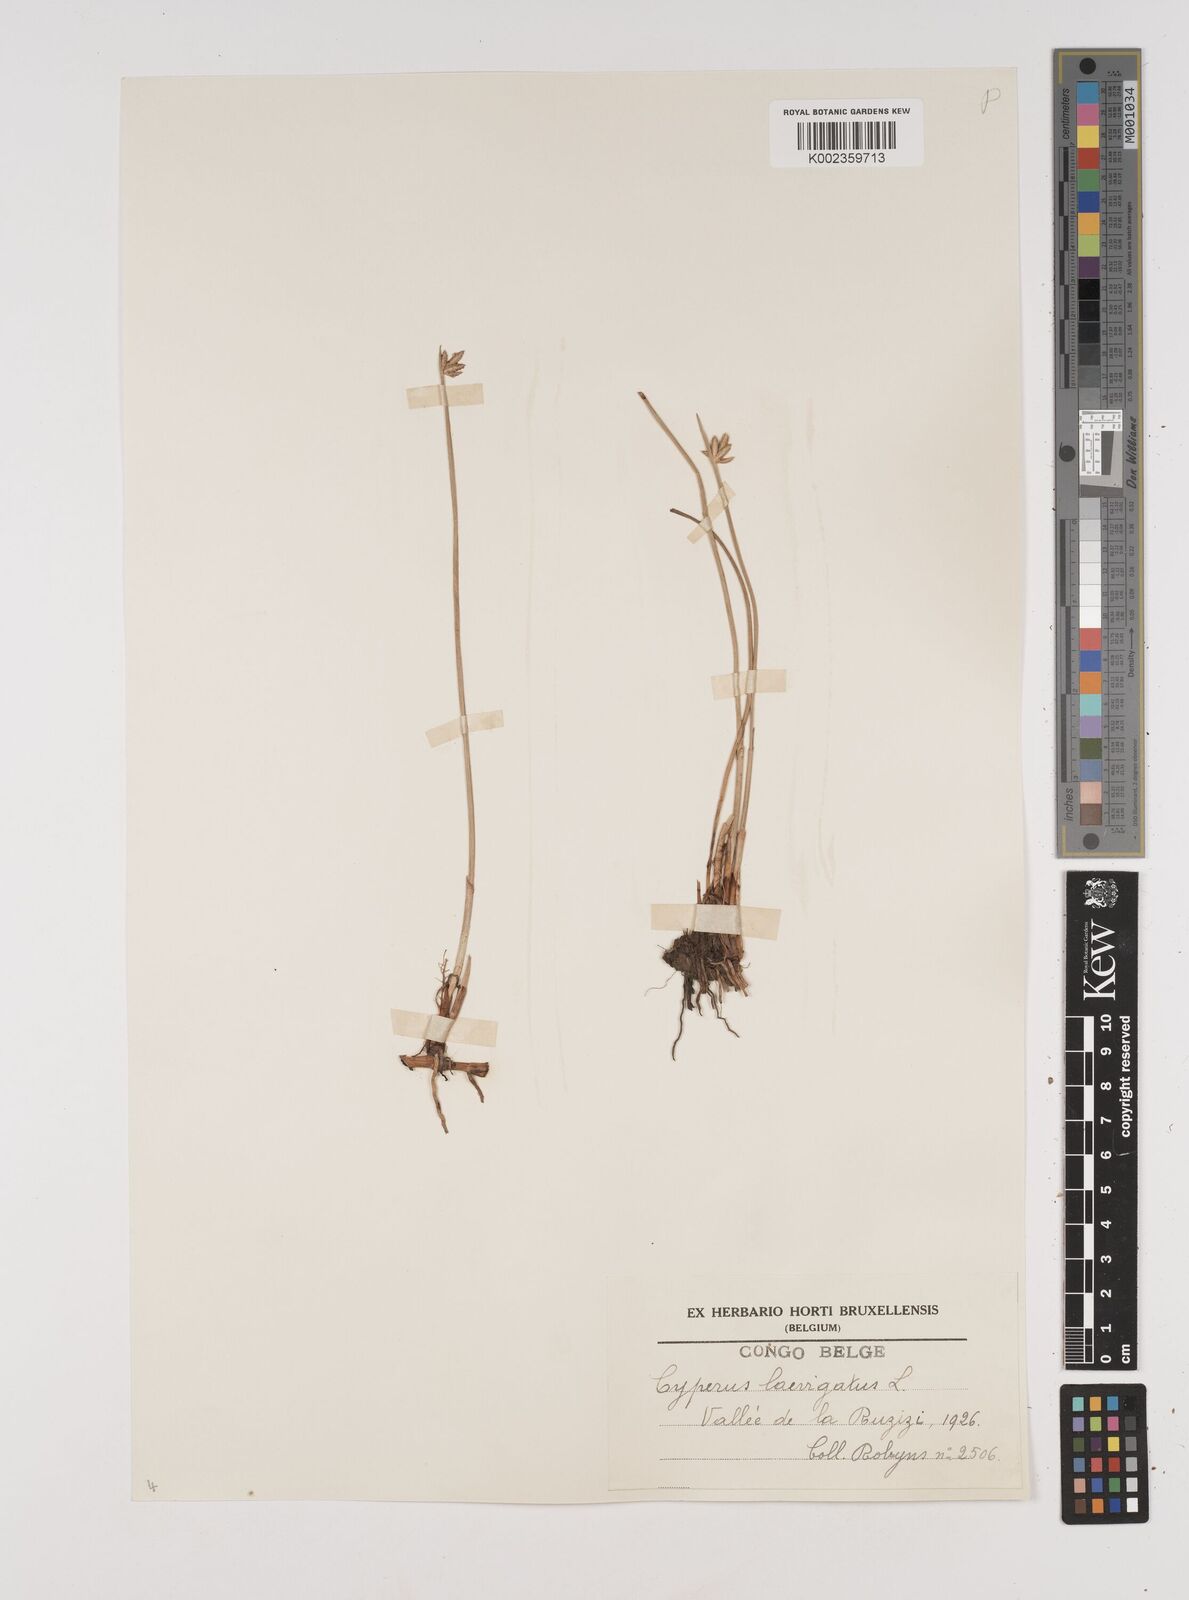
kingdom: Plantae
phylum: Tracheophyta
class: Liliopsida
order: Poales
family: Cyperaceae
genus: Cyperus
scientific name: Cyperus laevigatus
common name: Smooth flat sedge
